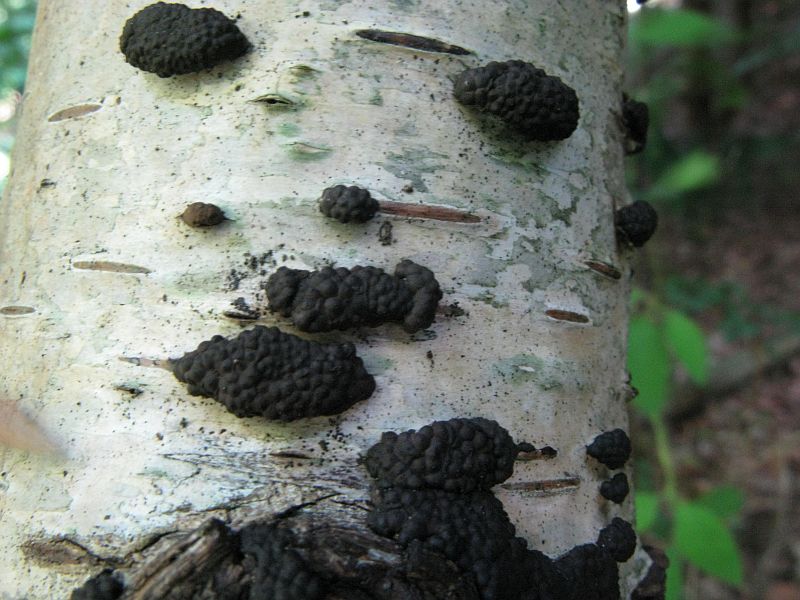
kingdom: Fungi
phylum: Ascomycota
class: Sordariomycetes
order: Xylariales
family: Hypoxylaceae
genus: Jackrogersella
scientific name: Jackrogersella multiformis
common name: foranderlig kulbær
